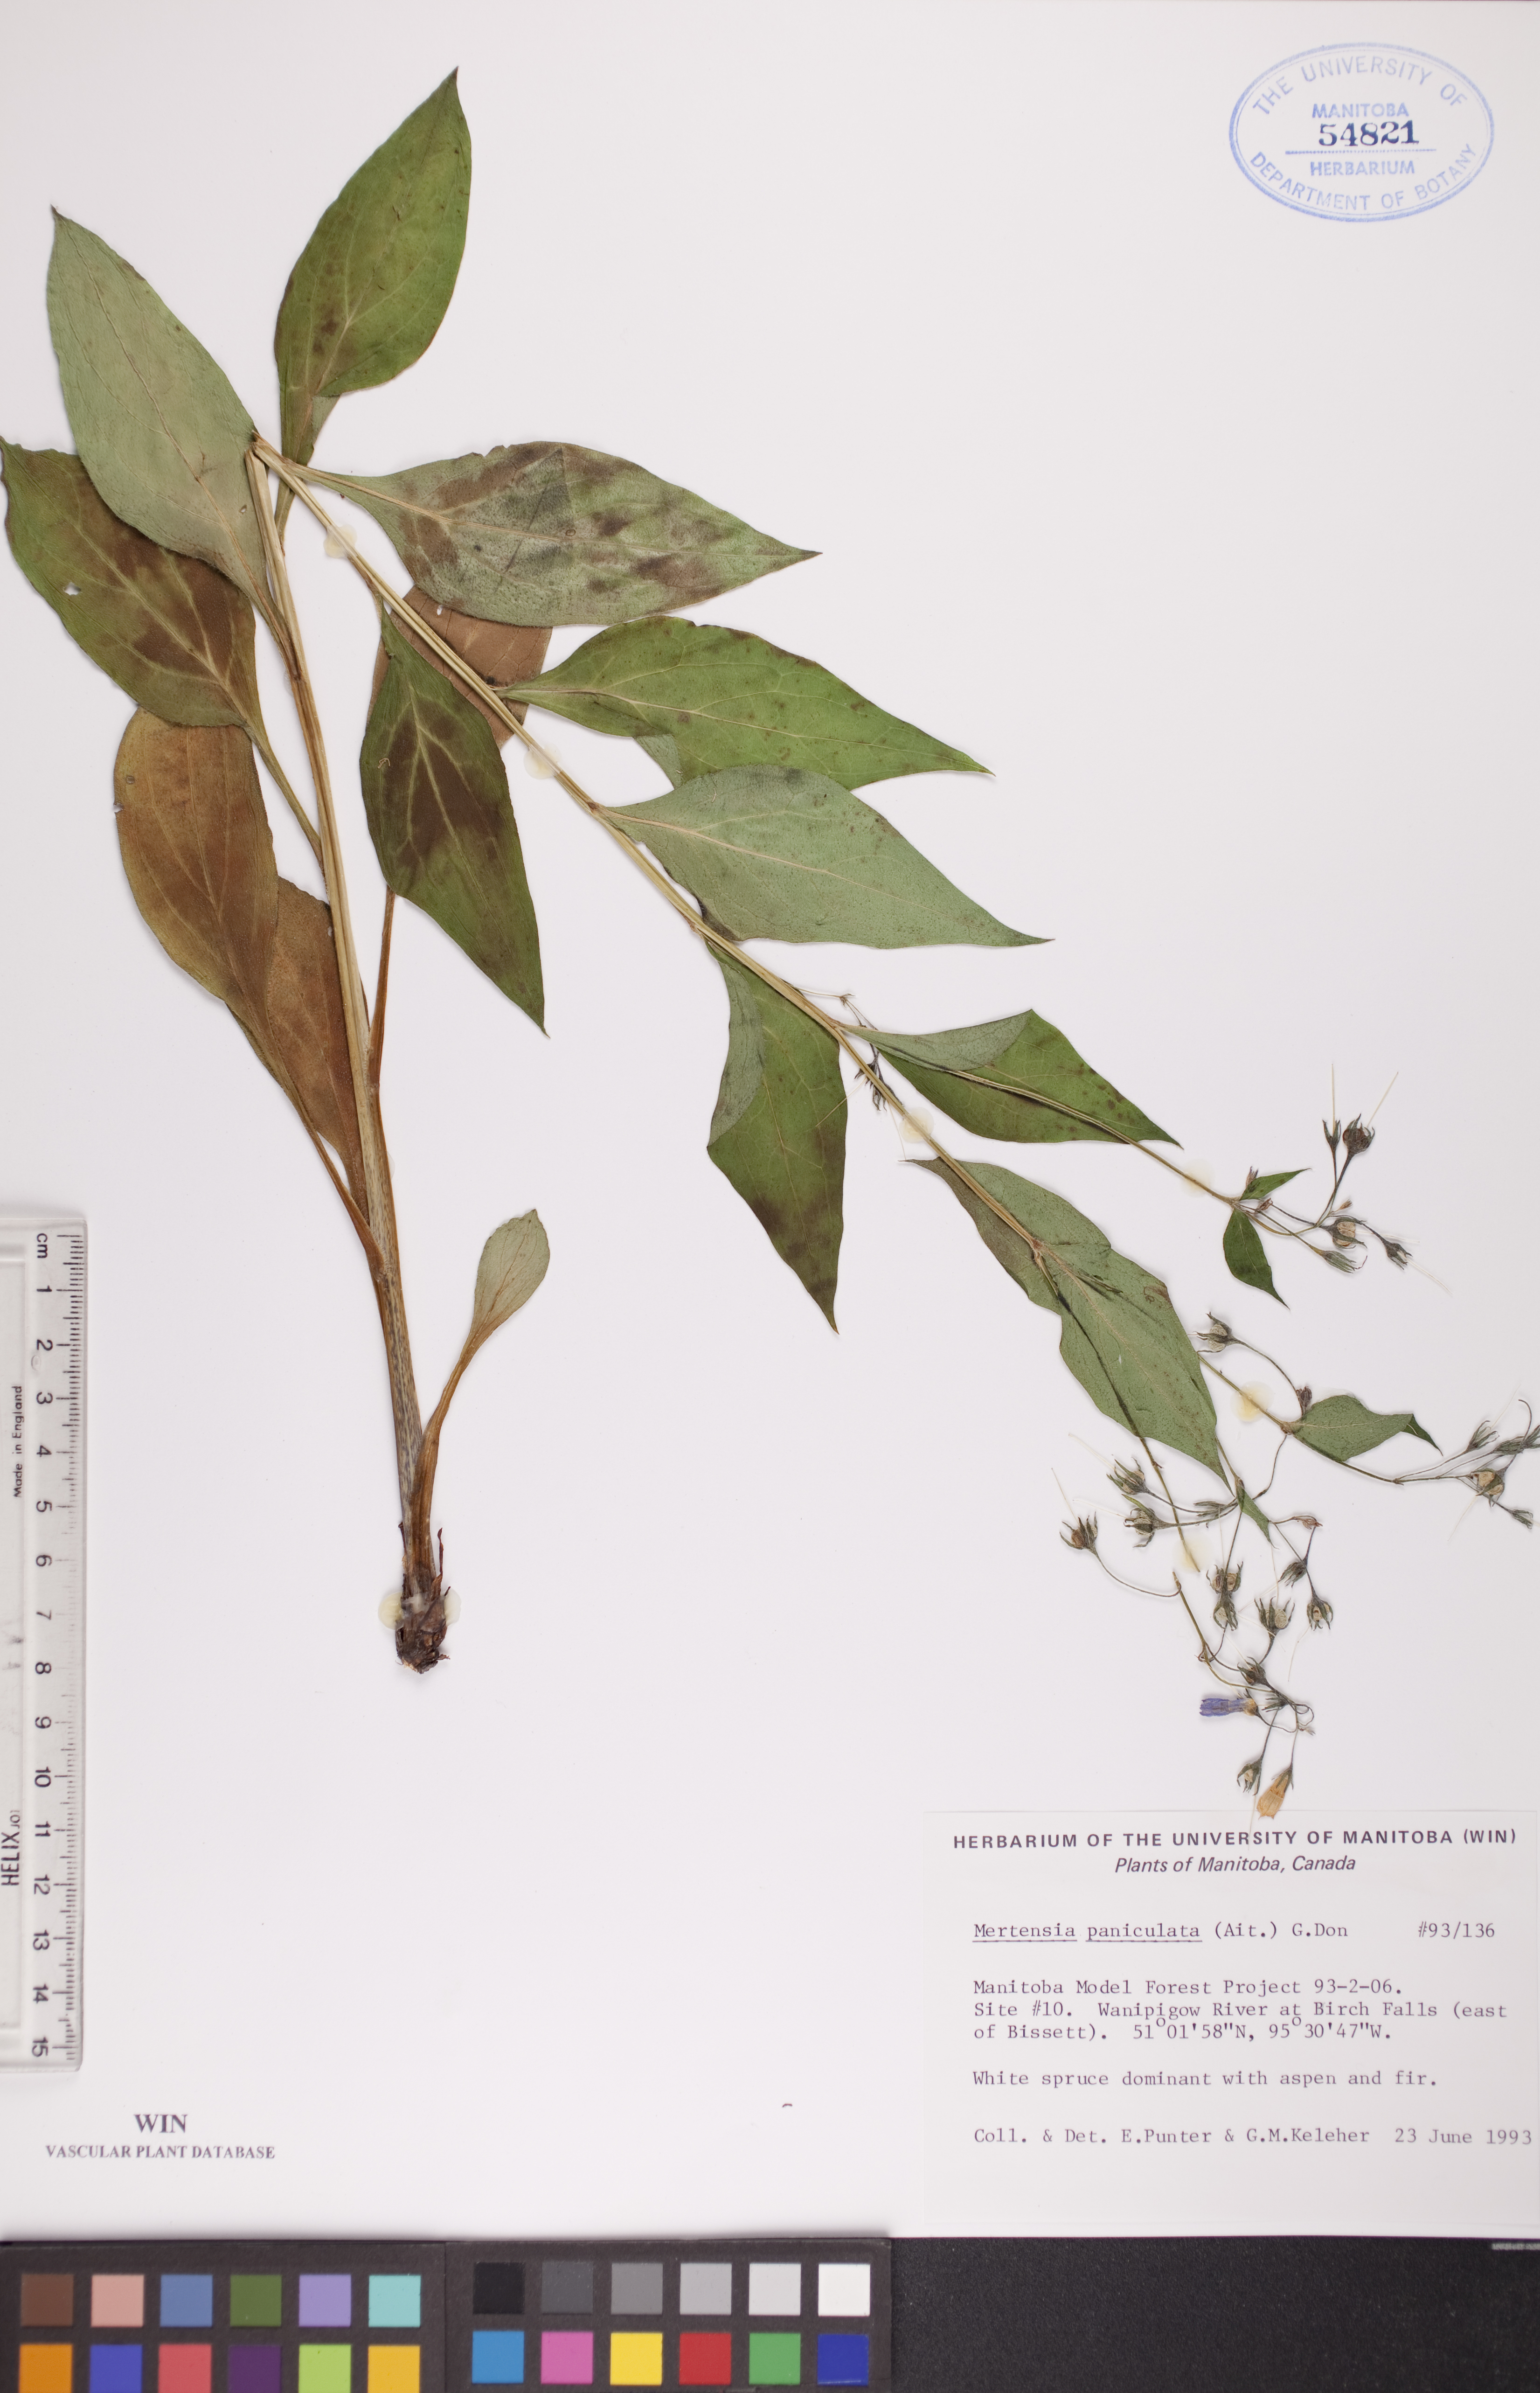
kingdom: Plantae
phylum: Tracheophyta
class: Magnoliopsida
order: Boraginales
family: Boraginaceae
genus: Mertensia
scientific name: Mertensia paniculata
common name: Panicled bluebells
